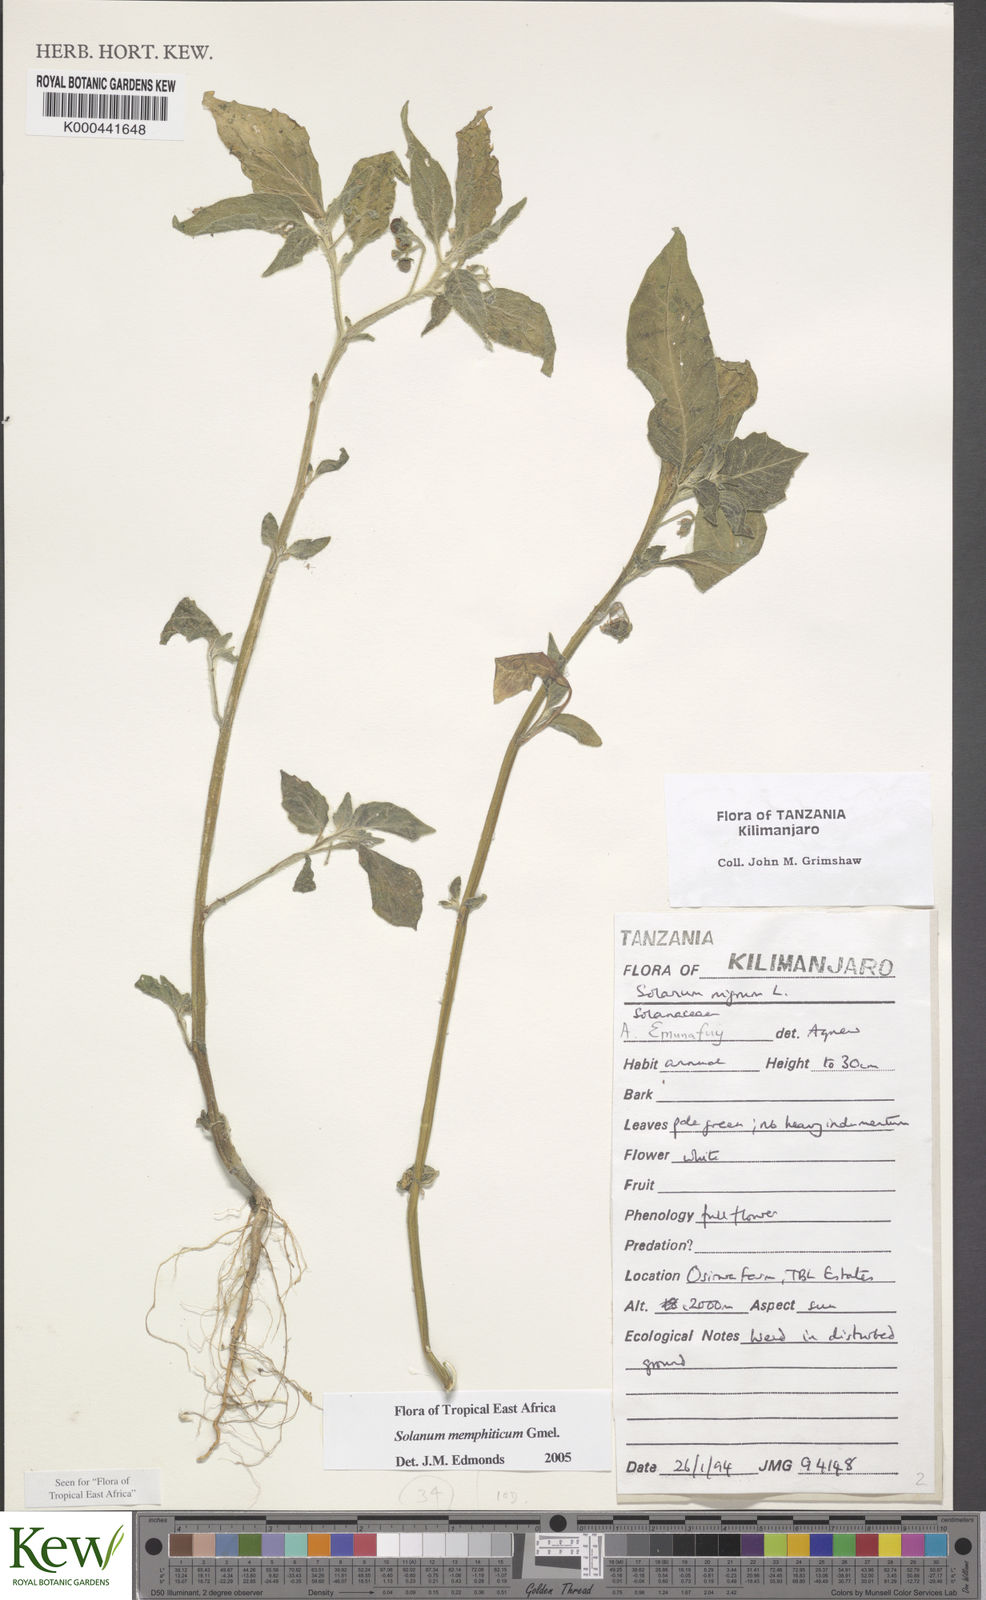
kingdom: Plantae
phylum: Tracheophyta
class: Magnoliopsida
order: Solanales
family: Solanaceae
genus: Solanum
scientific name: Solanum memphiticum
